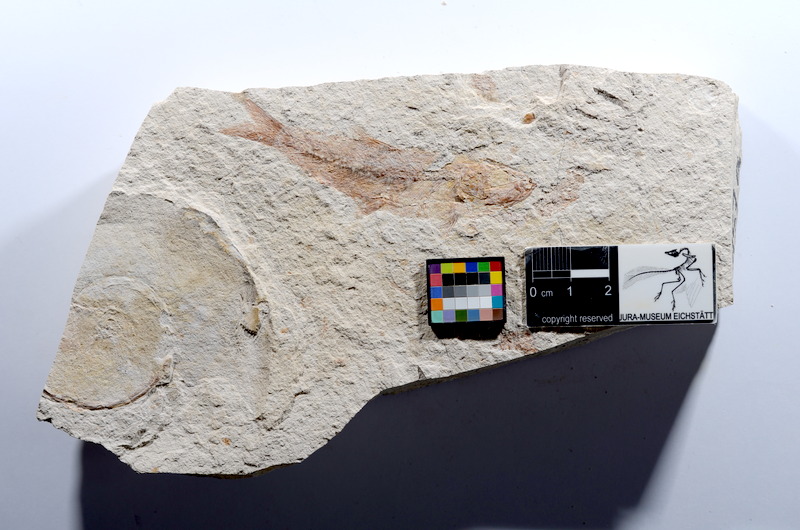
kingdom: Animalia
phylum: Chordata
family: Ascalaboidae
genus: Tharsis
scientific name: Tharsis dubius
